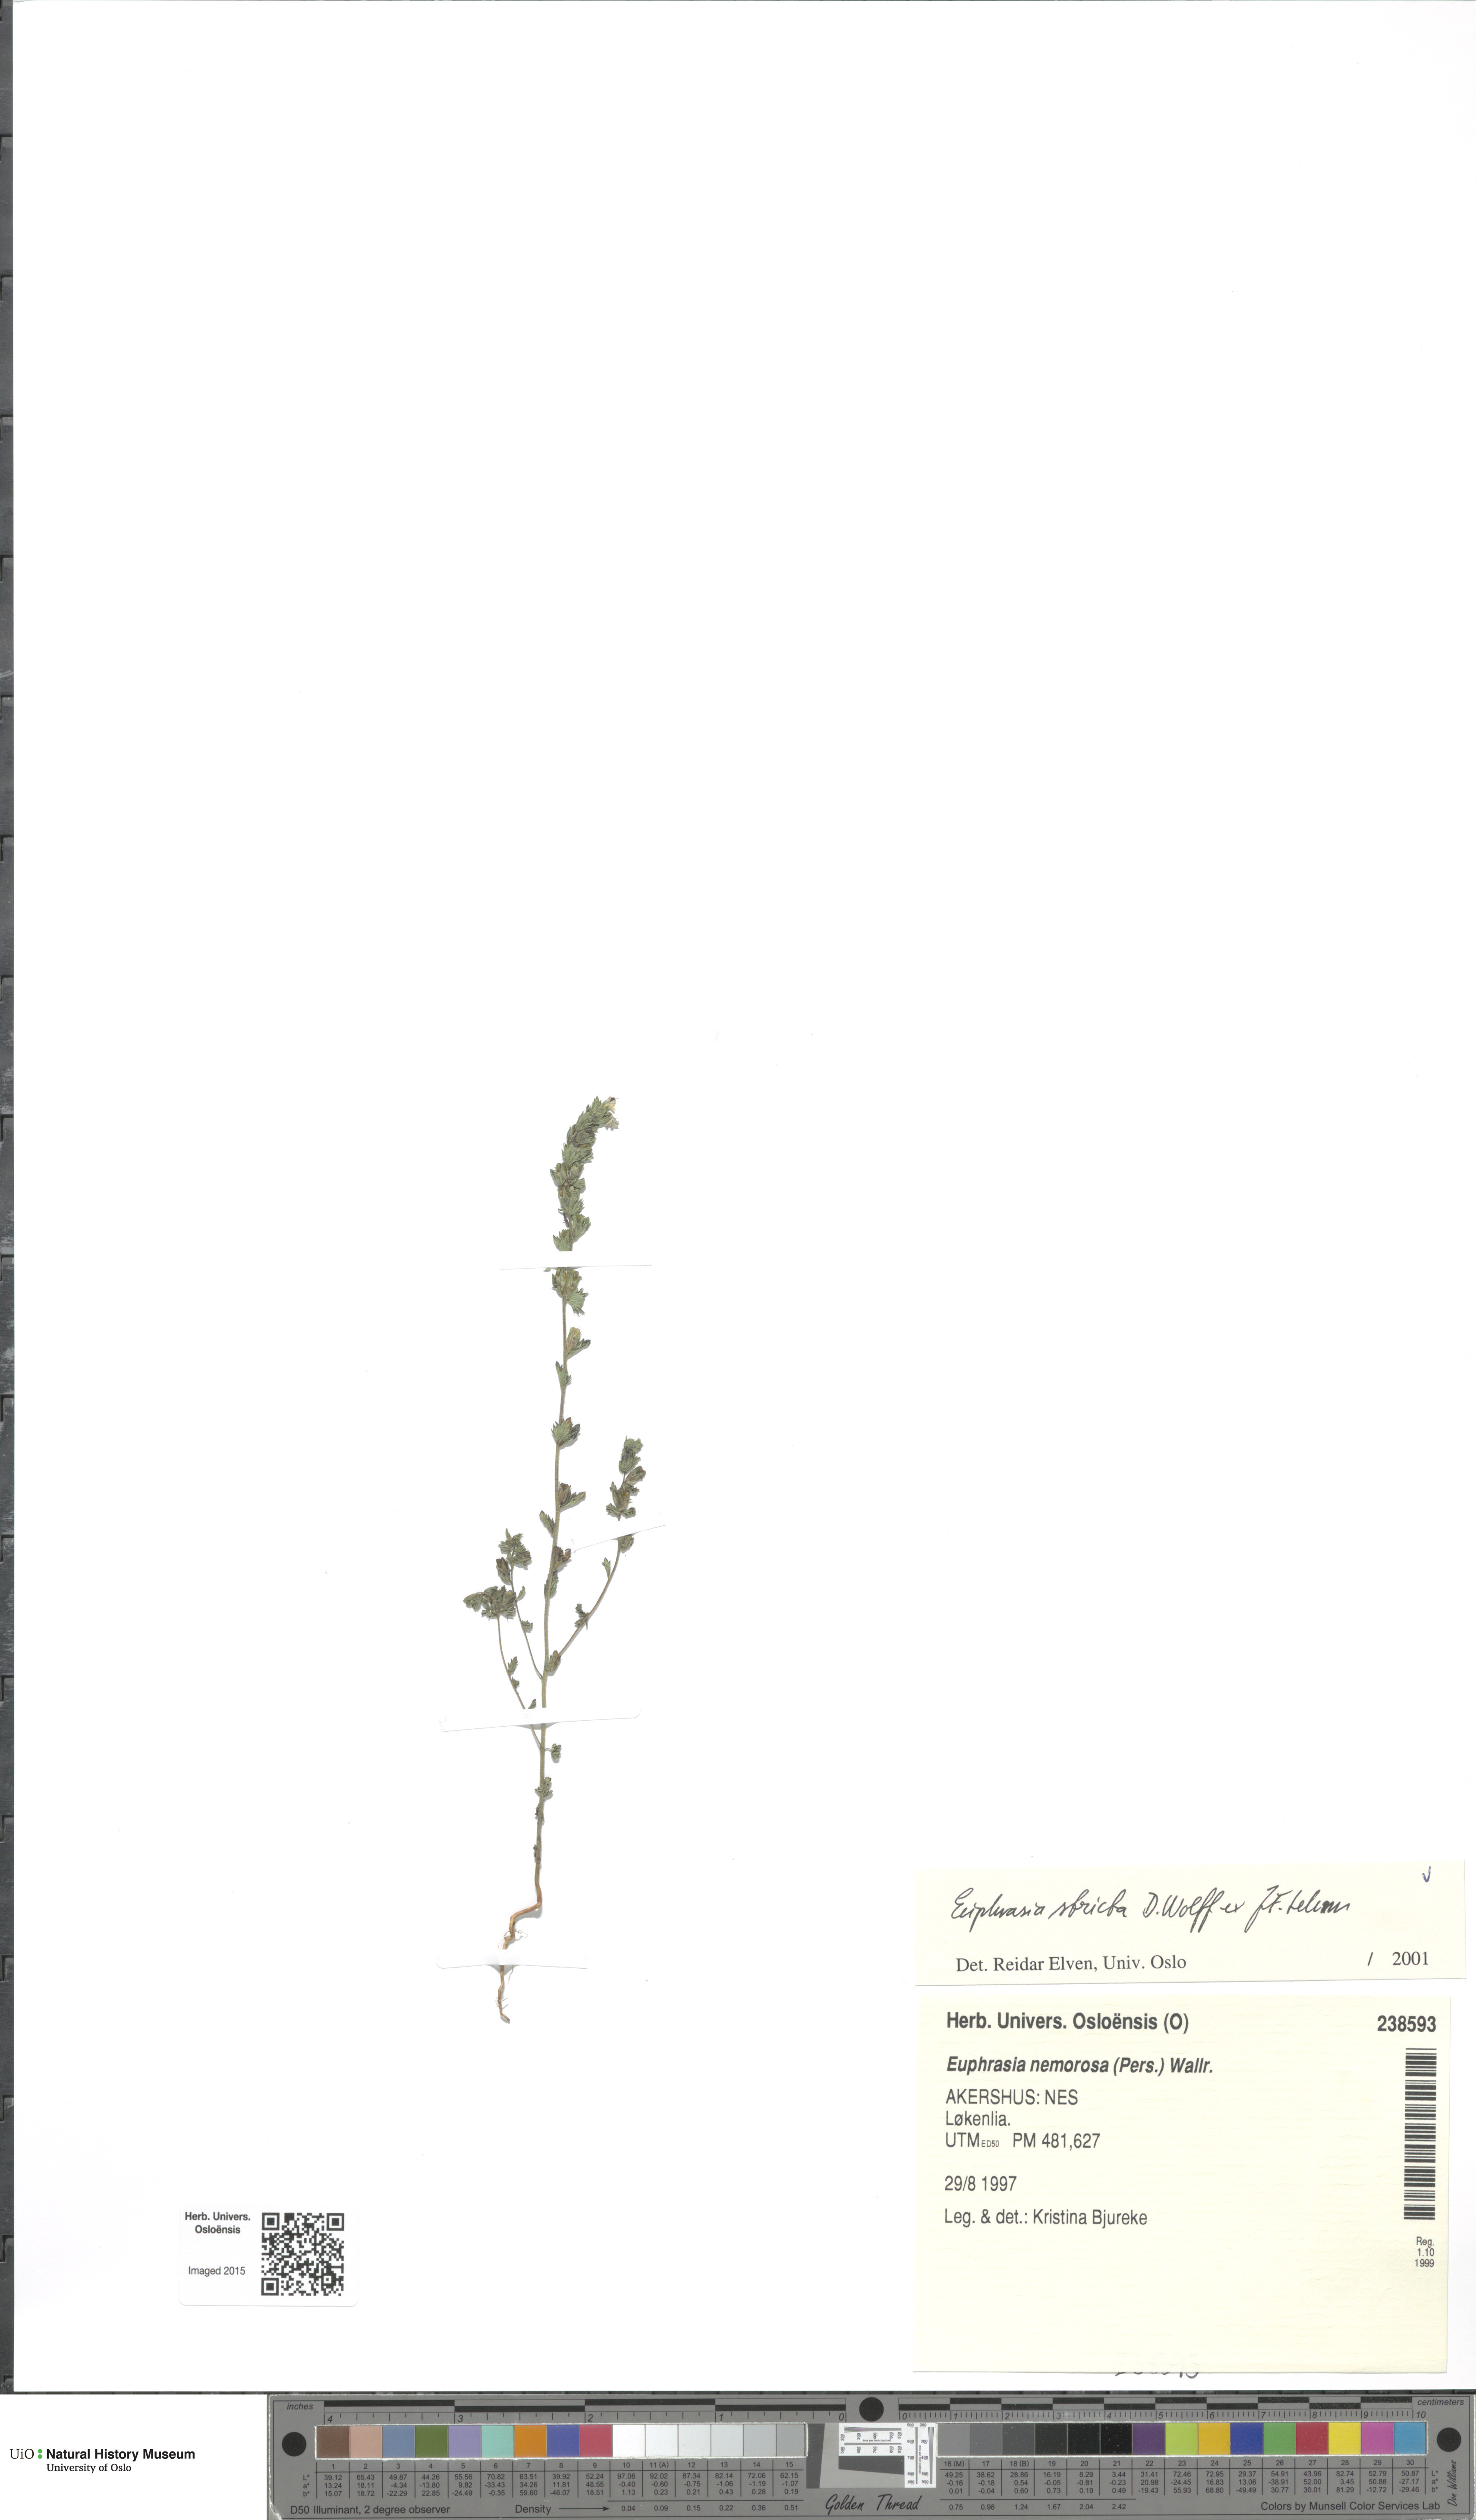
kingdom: Plantae
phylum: Tracheophyta
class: Magnoliopsida
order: Lamiales
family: Orobanchaceae
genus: Euphrasia
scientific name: Euphrasia stricta
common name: Drug eyebright
